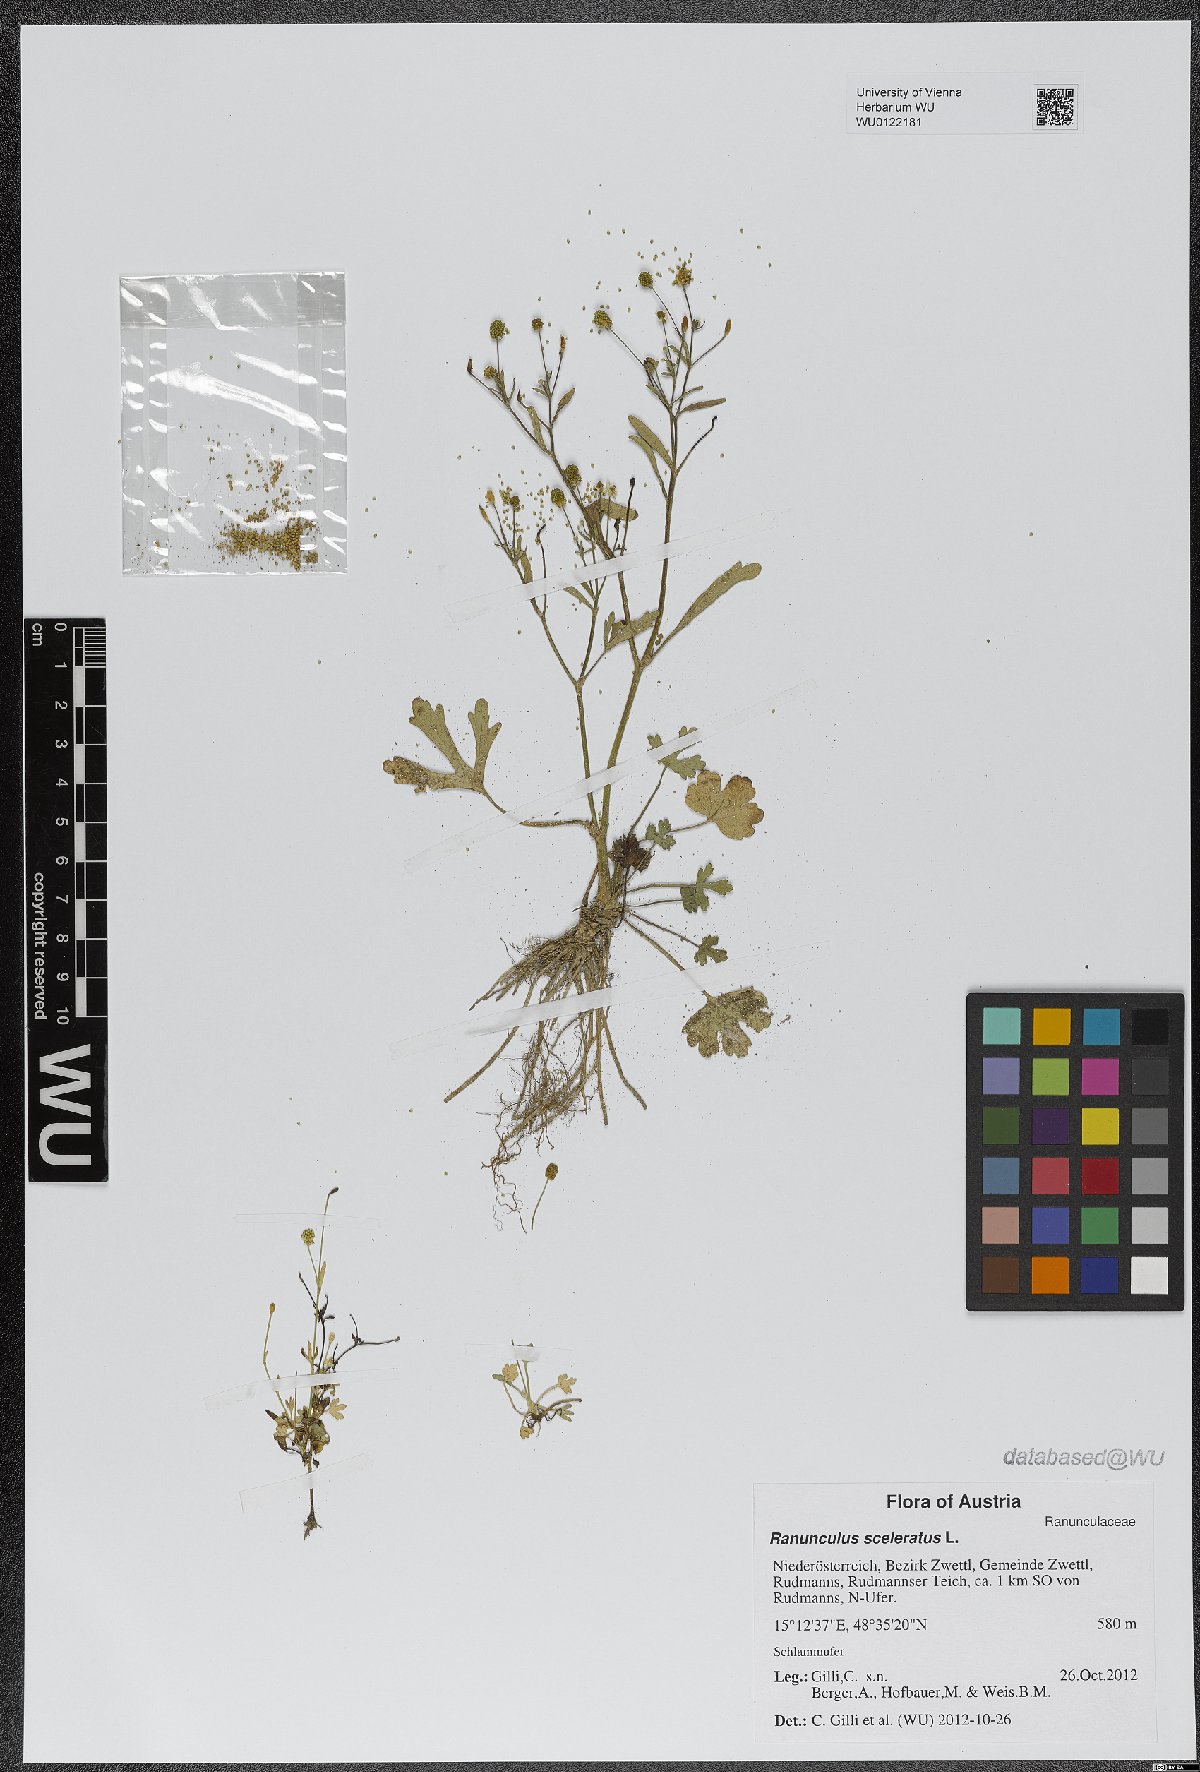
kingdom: Plantae
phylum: Tracheophyta
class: Magnoliopsida
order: Ranunculales
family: Ranunculaceae
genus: Ranunculus
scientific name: Ranunculus sceleratus
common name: Celery-leaved buttercup
